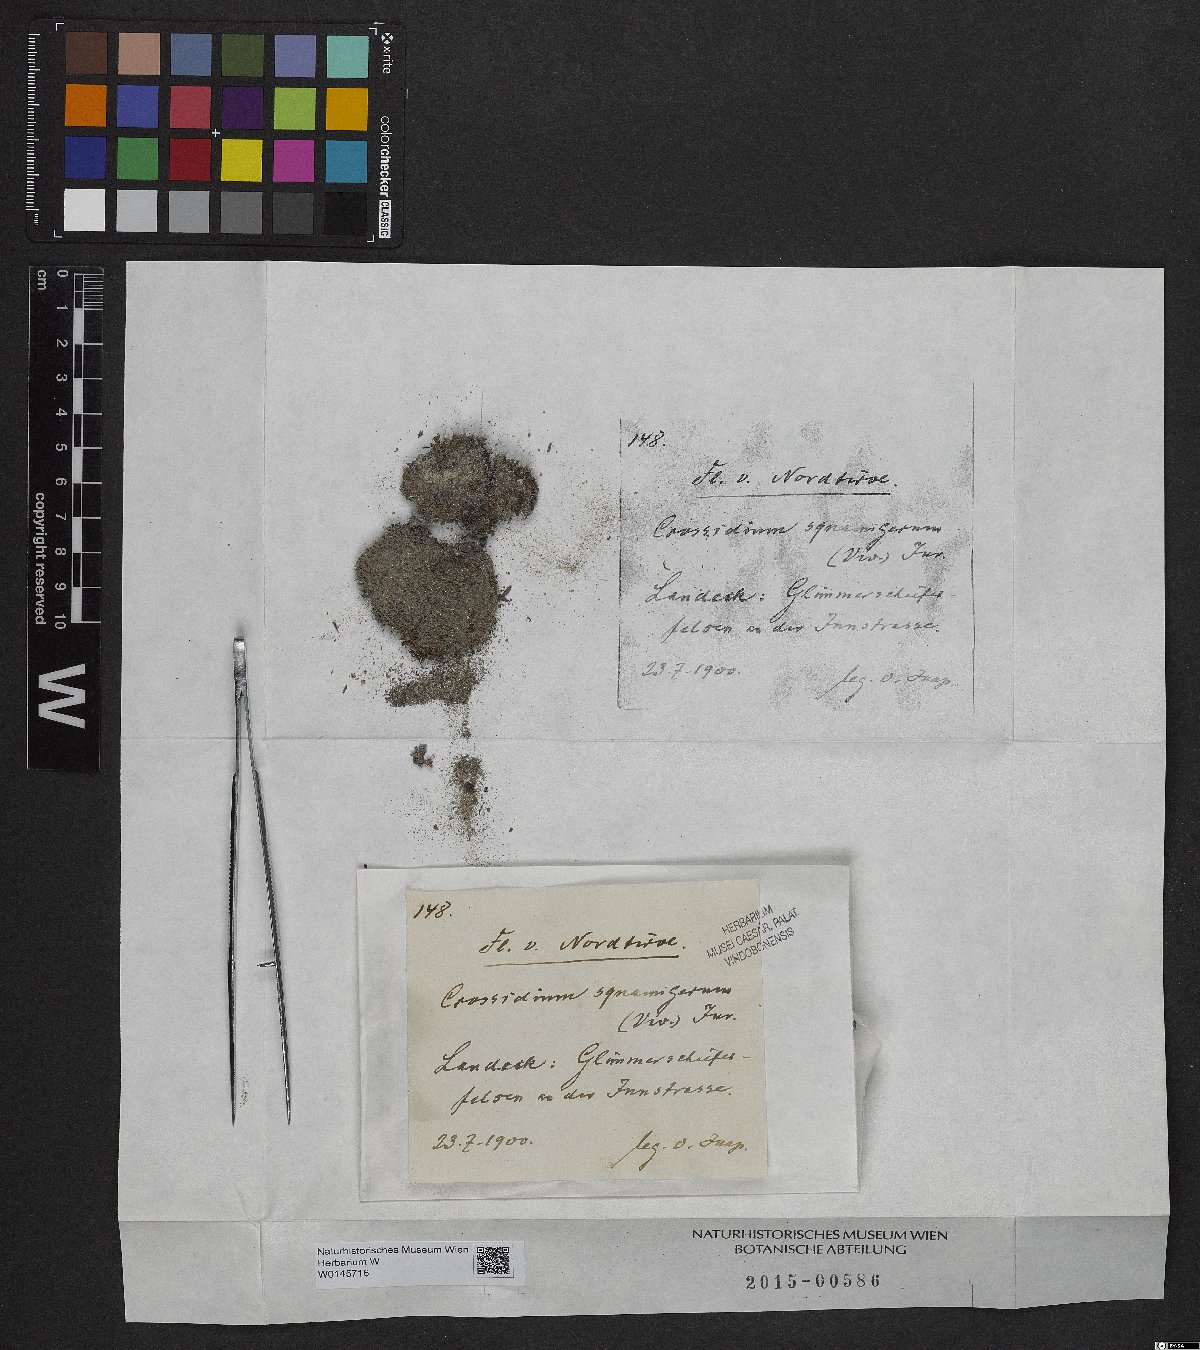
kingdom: Plantae
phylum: Bryophyta
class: Bryopsida
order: Pottiales
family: Pottiaceae
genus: Crossidium
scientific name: Crossidium squamiferum
